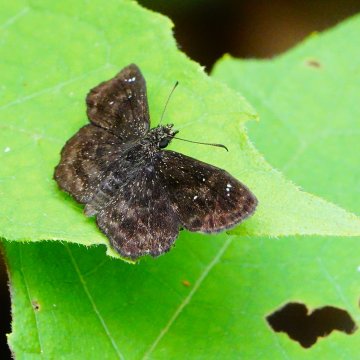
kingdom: Animalia
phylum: Arthropoda
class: Insecta
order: Lepidoptera
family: Hesperiidae
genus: Staphylus
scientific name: Staphylus mazans
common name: Hayhurst's Scallopwing
